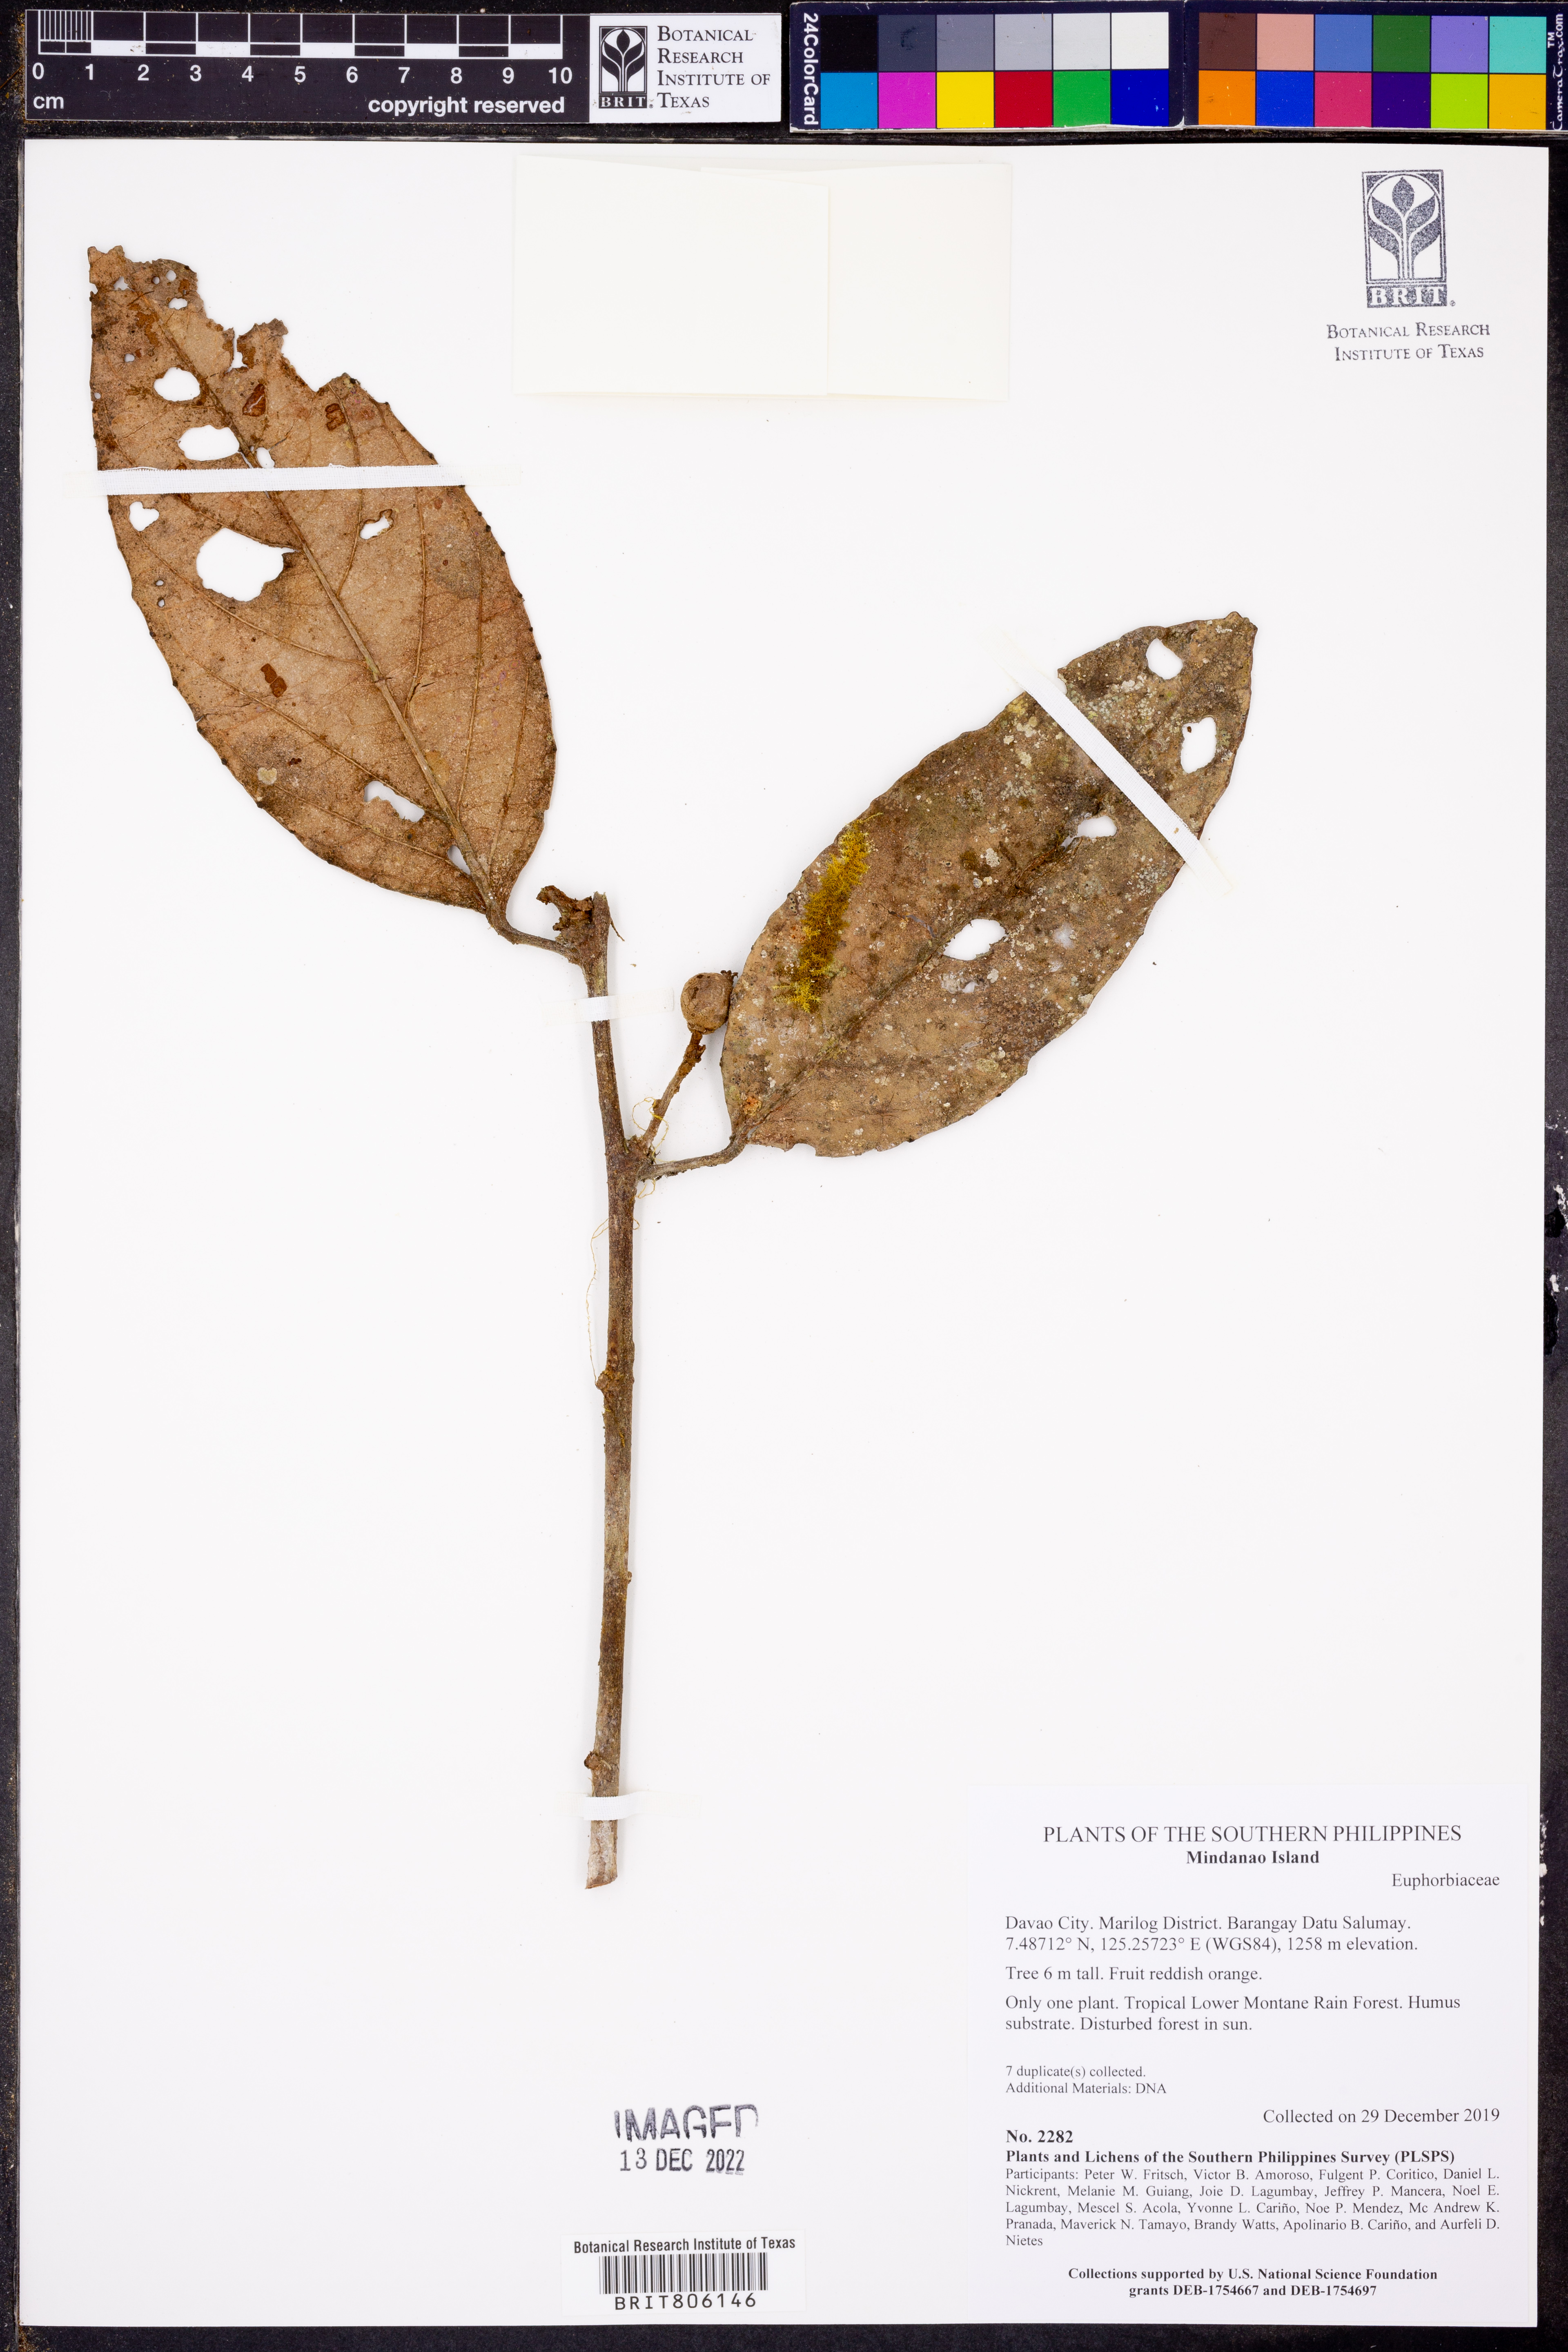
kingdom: Plantae
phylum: Tracheophyta
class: Magnoliopsida
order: Malpighiales
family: Euphorbiaceae
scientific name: Euphorbiaceae
